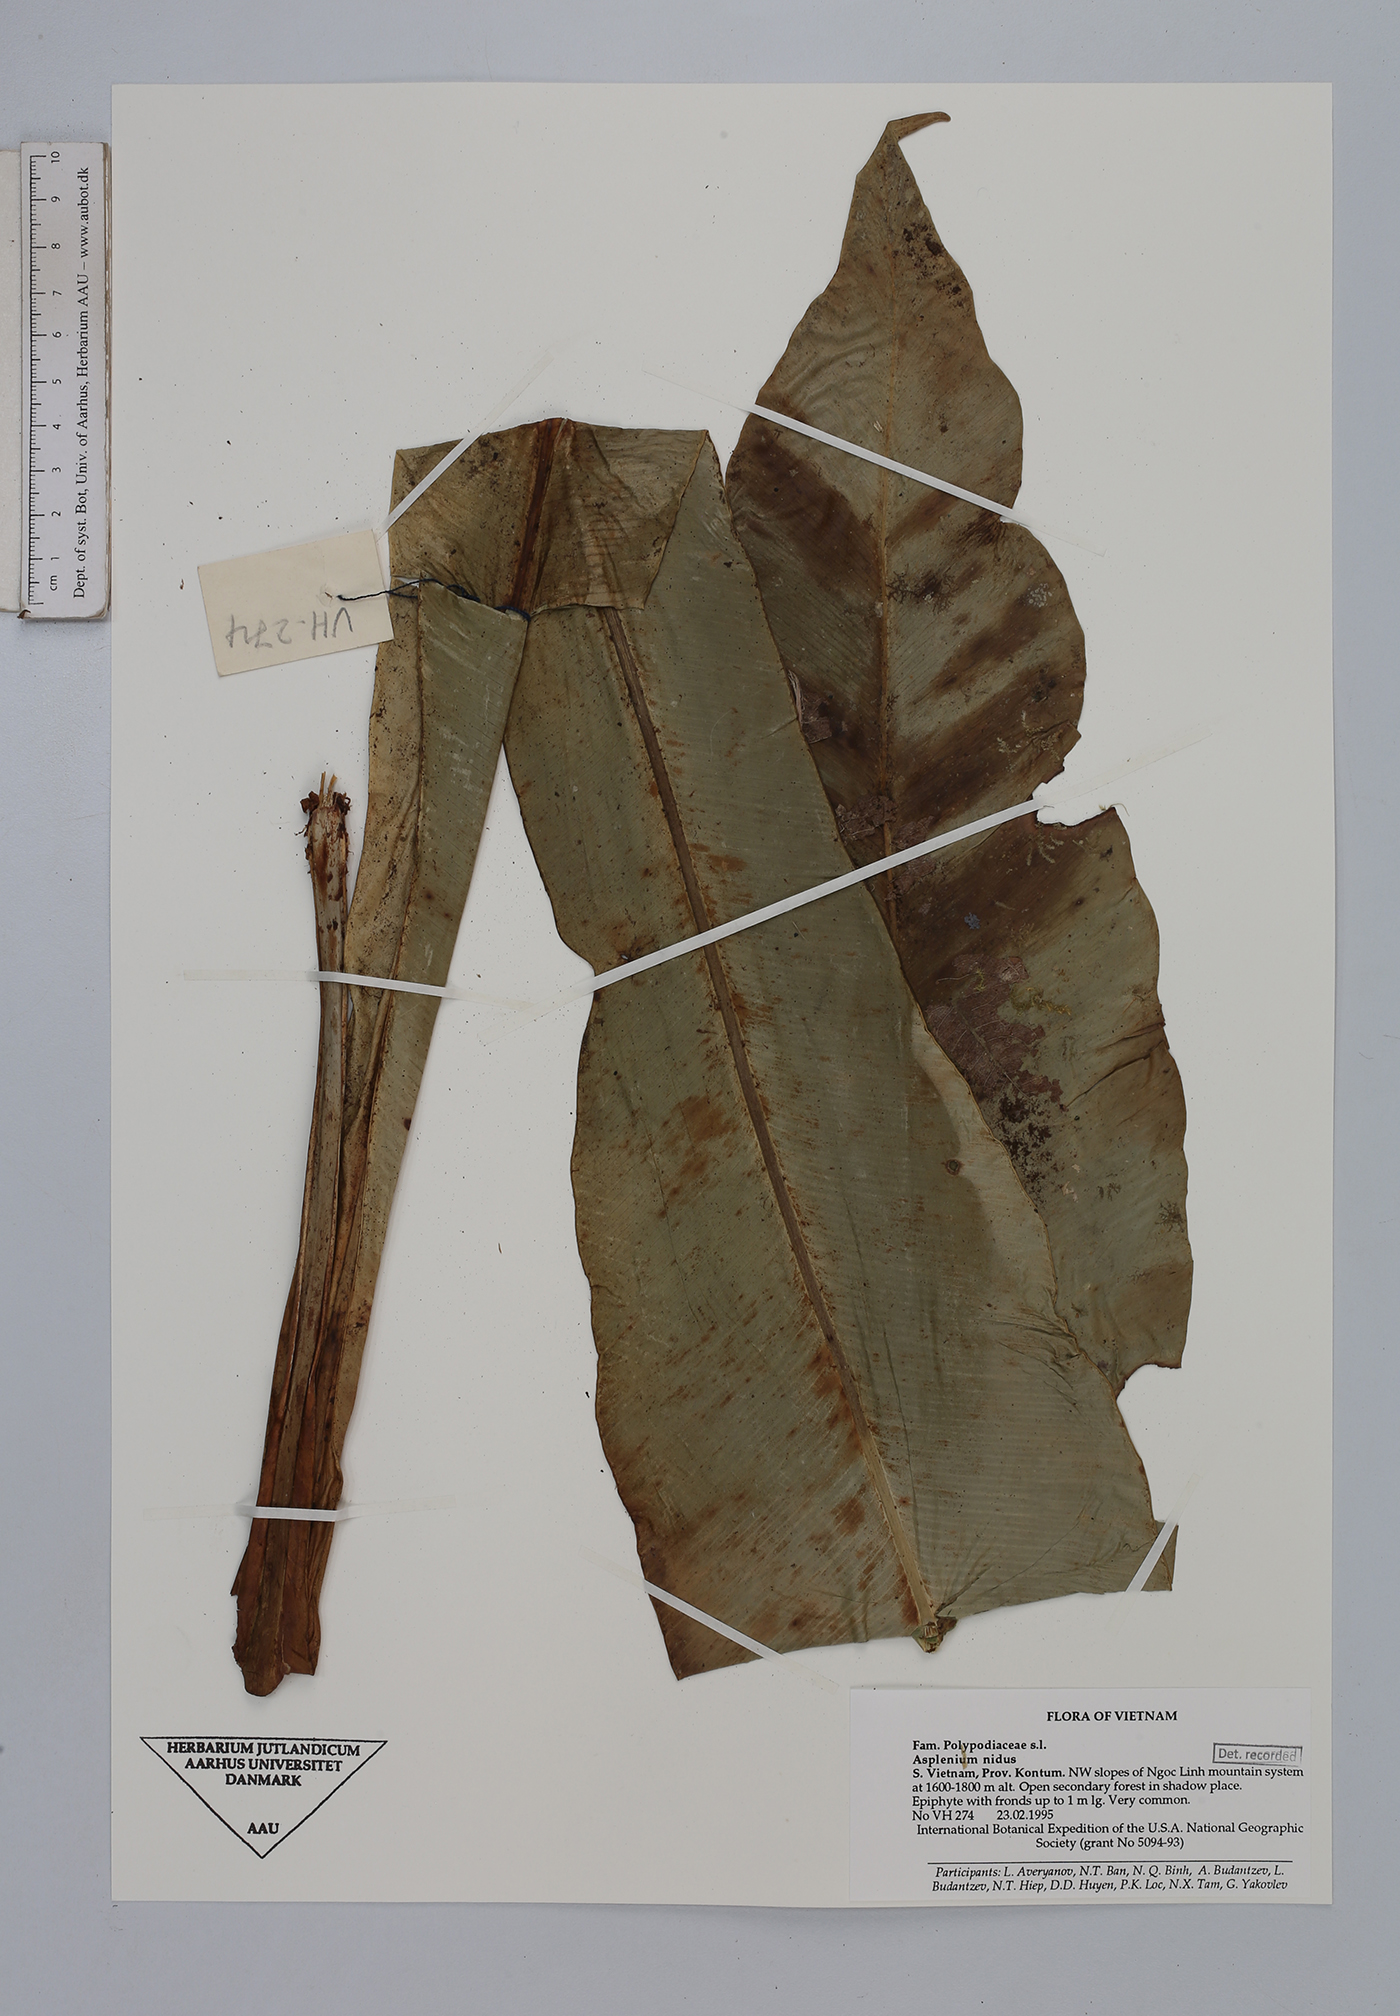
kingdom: Plantae
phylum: Tracheophyta
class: Polypodiopsida
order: Polypodiales
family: Aspleniaceae
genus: Asplenium
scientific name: Asplenium nidus
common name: Bird's-nest fern
